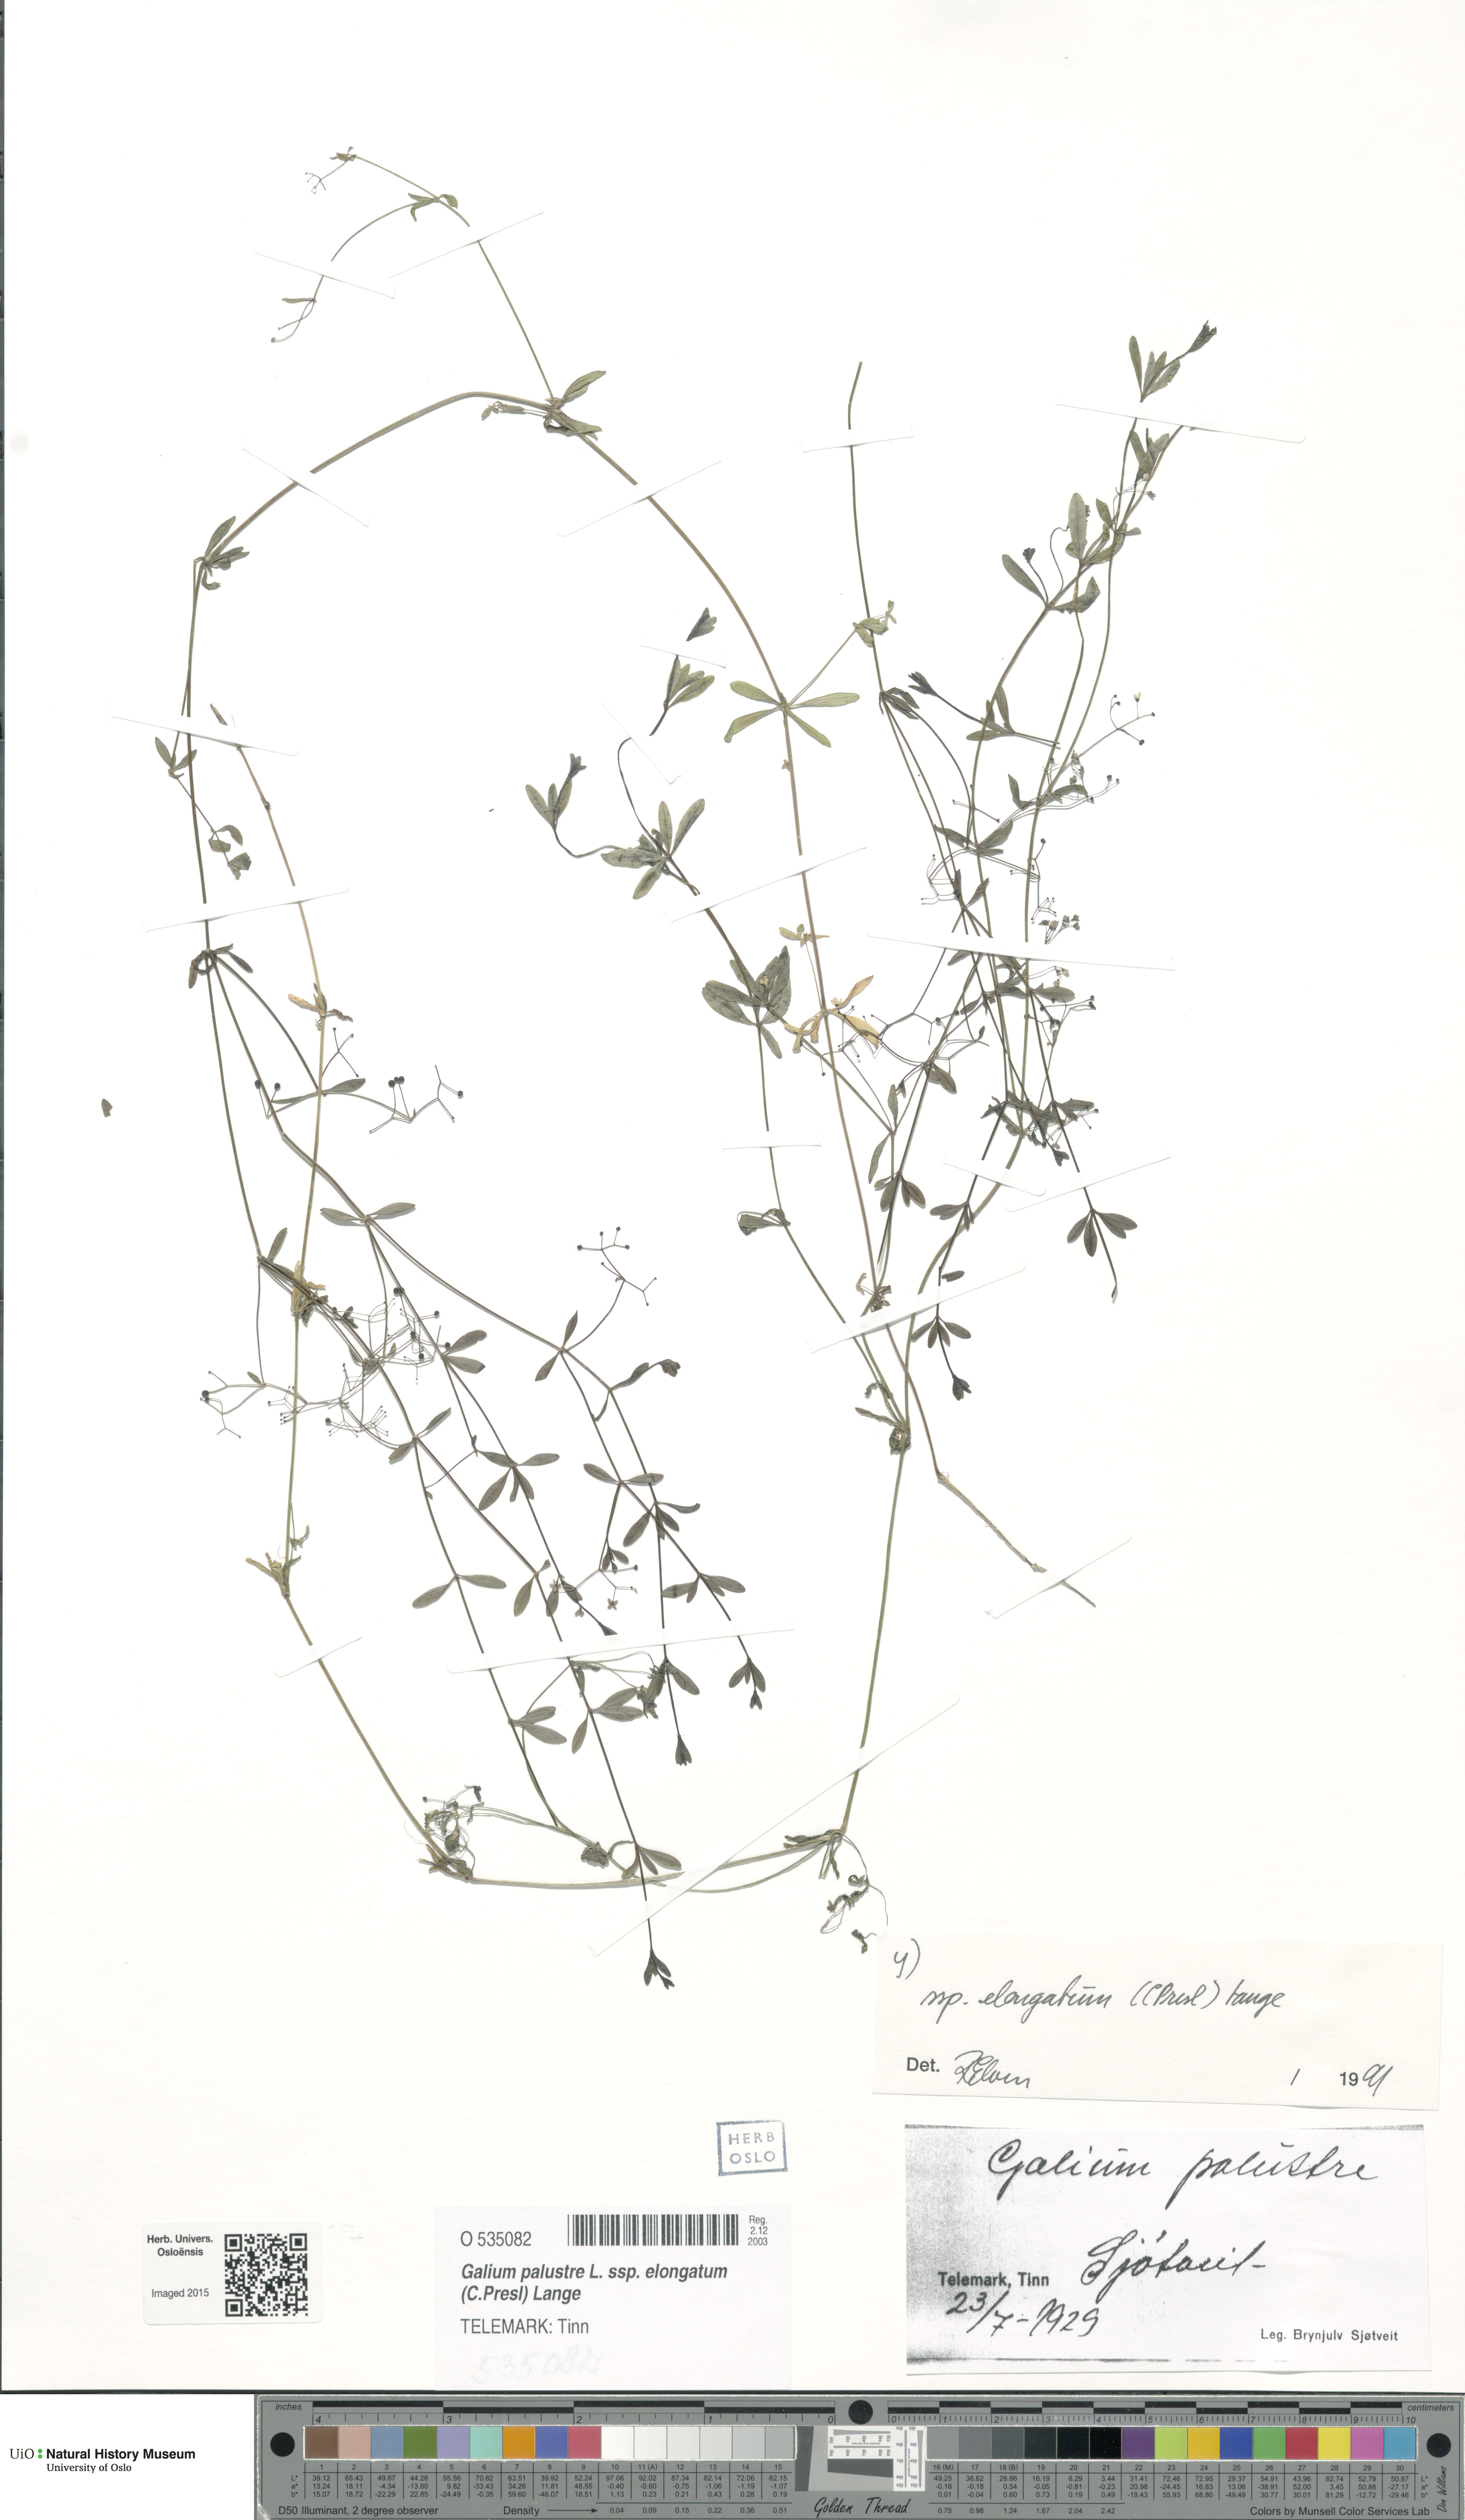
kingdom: Plantae
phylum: Tracheophyta
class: Magnoliopsida
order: Gentianales
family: Rubiaceae
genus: Galium
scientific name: Galium elongatum
